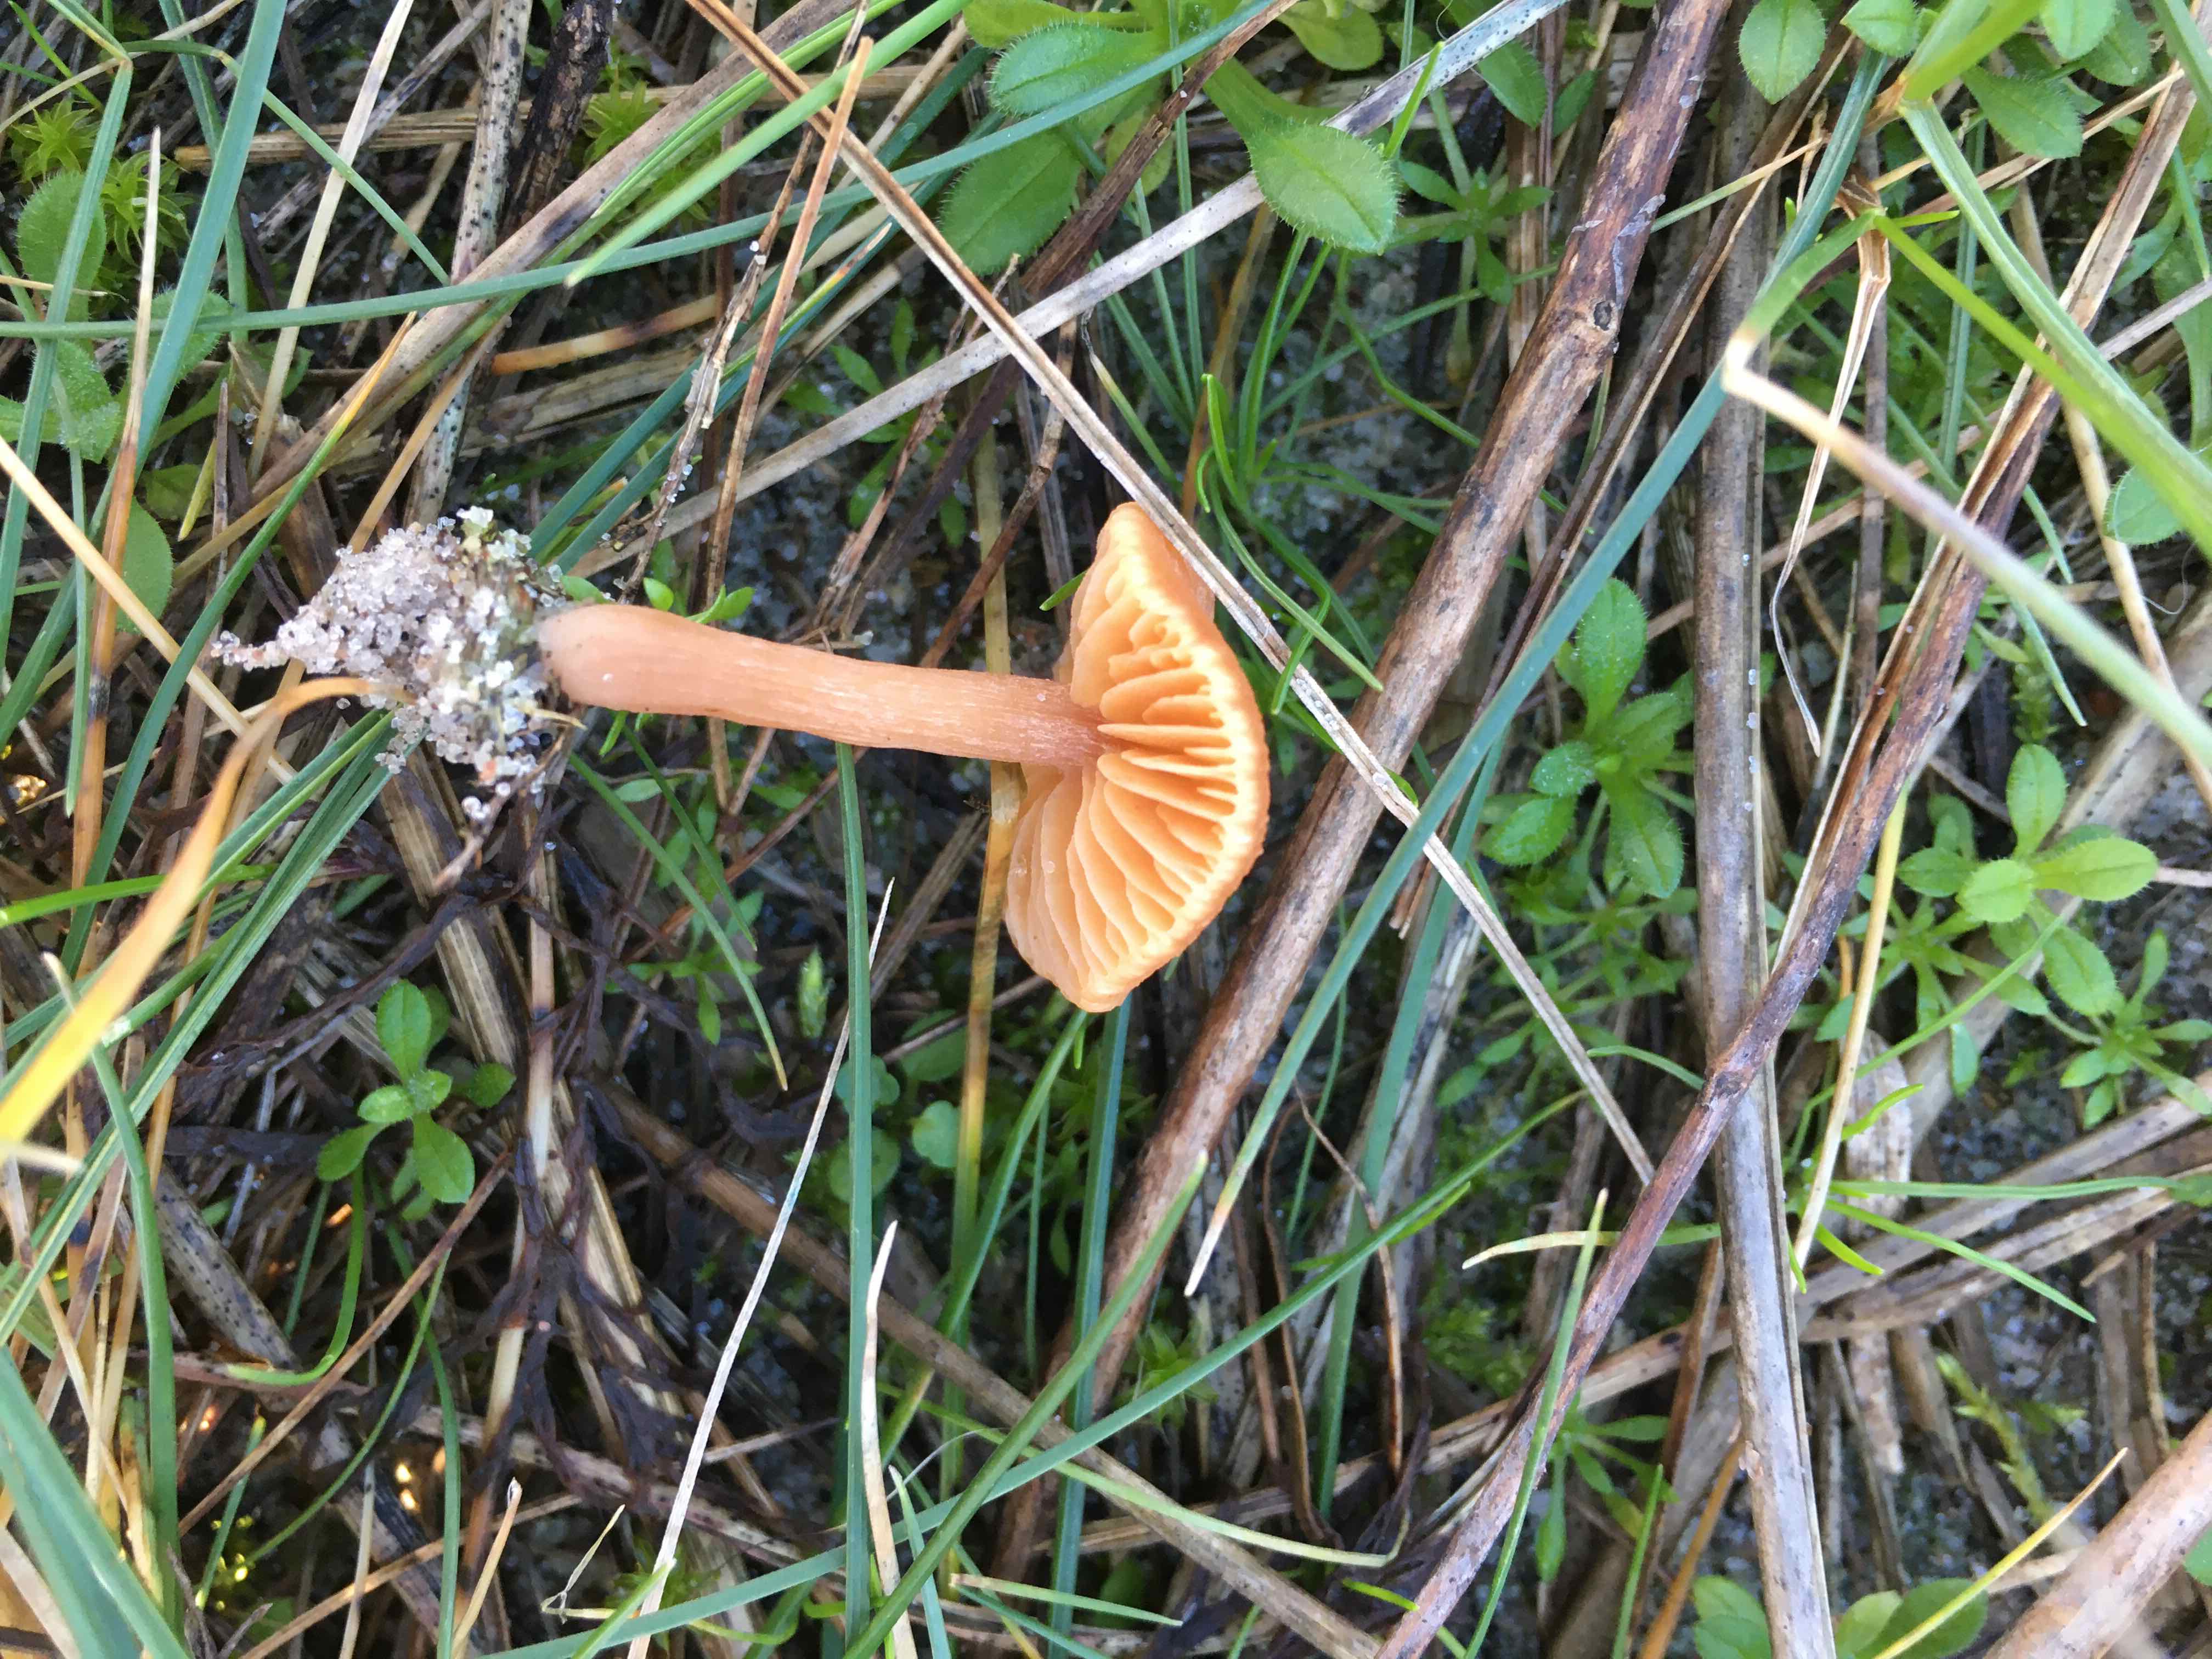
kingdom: Fungi
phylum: Basidiomycota
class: Agaricomycetes
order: Agaricales
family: Tubariaceae
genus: Tubaria
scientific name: Tubaria furfuracea
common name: kliddet fnughat
